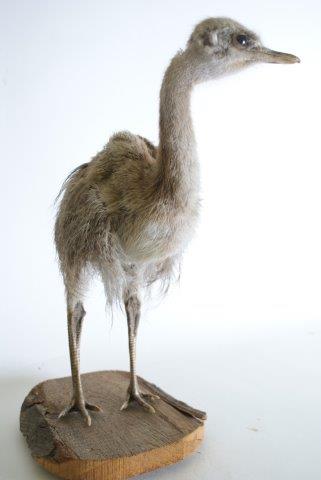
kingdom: Animalia
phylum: Chordata
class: Aves
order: Rheiformes
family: Rheidae
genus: Rhea
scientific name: Rhea americana
